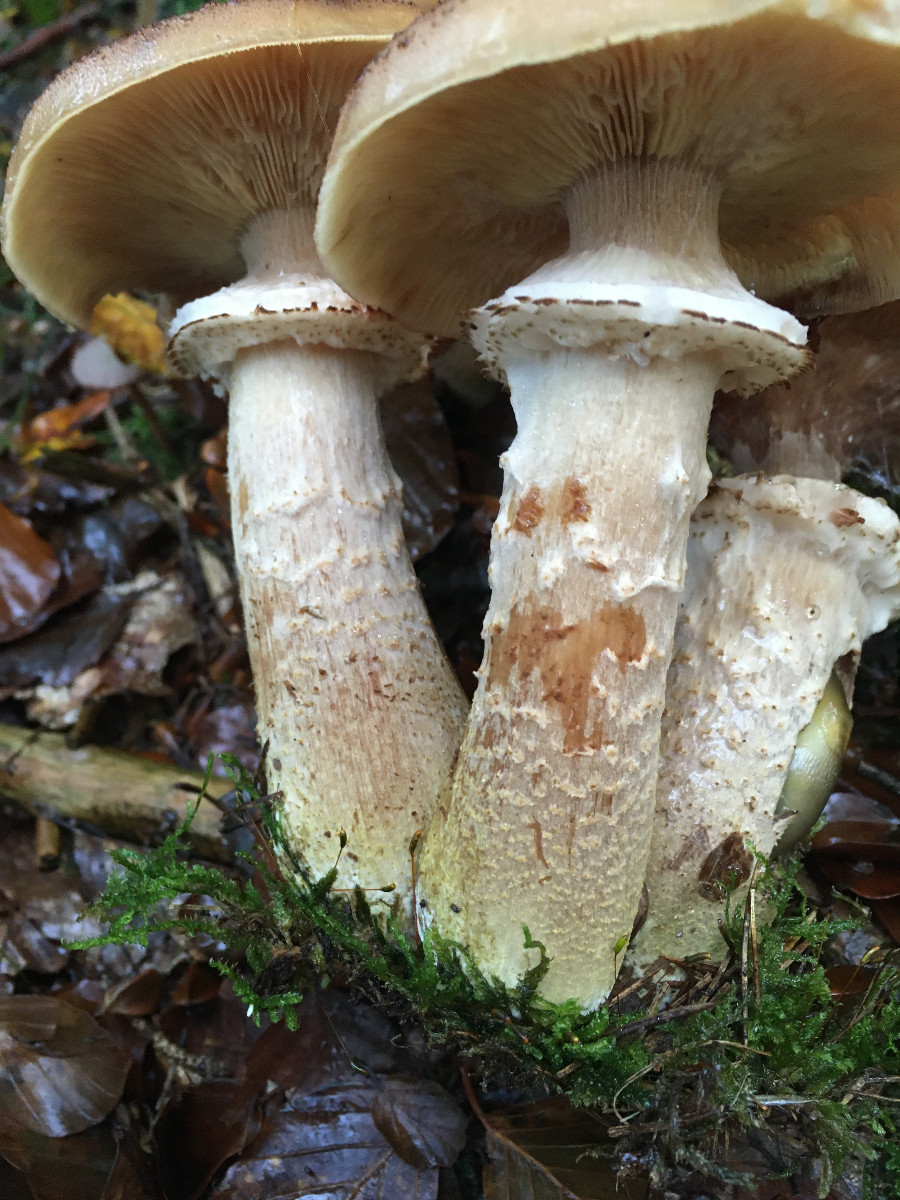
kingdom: Fungi
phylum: Basidiomycota
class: Agaricomycetes
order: Agaricales
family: Physalacriaceae
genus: Armillaria
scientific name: Armillaria ostoyae
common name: mørk honningsvamp
